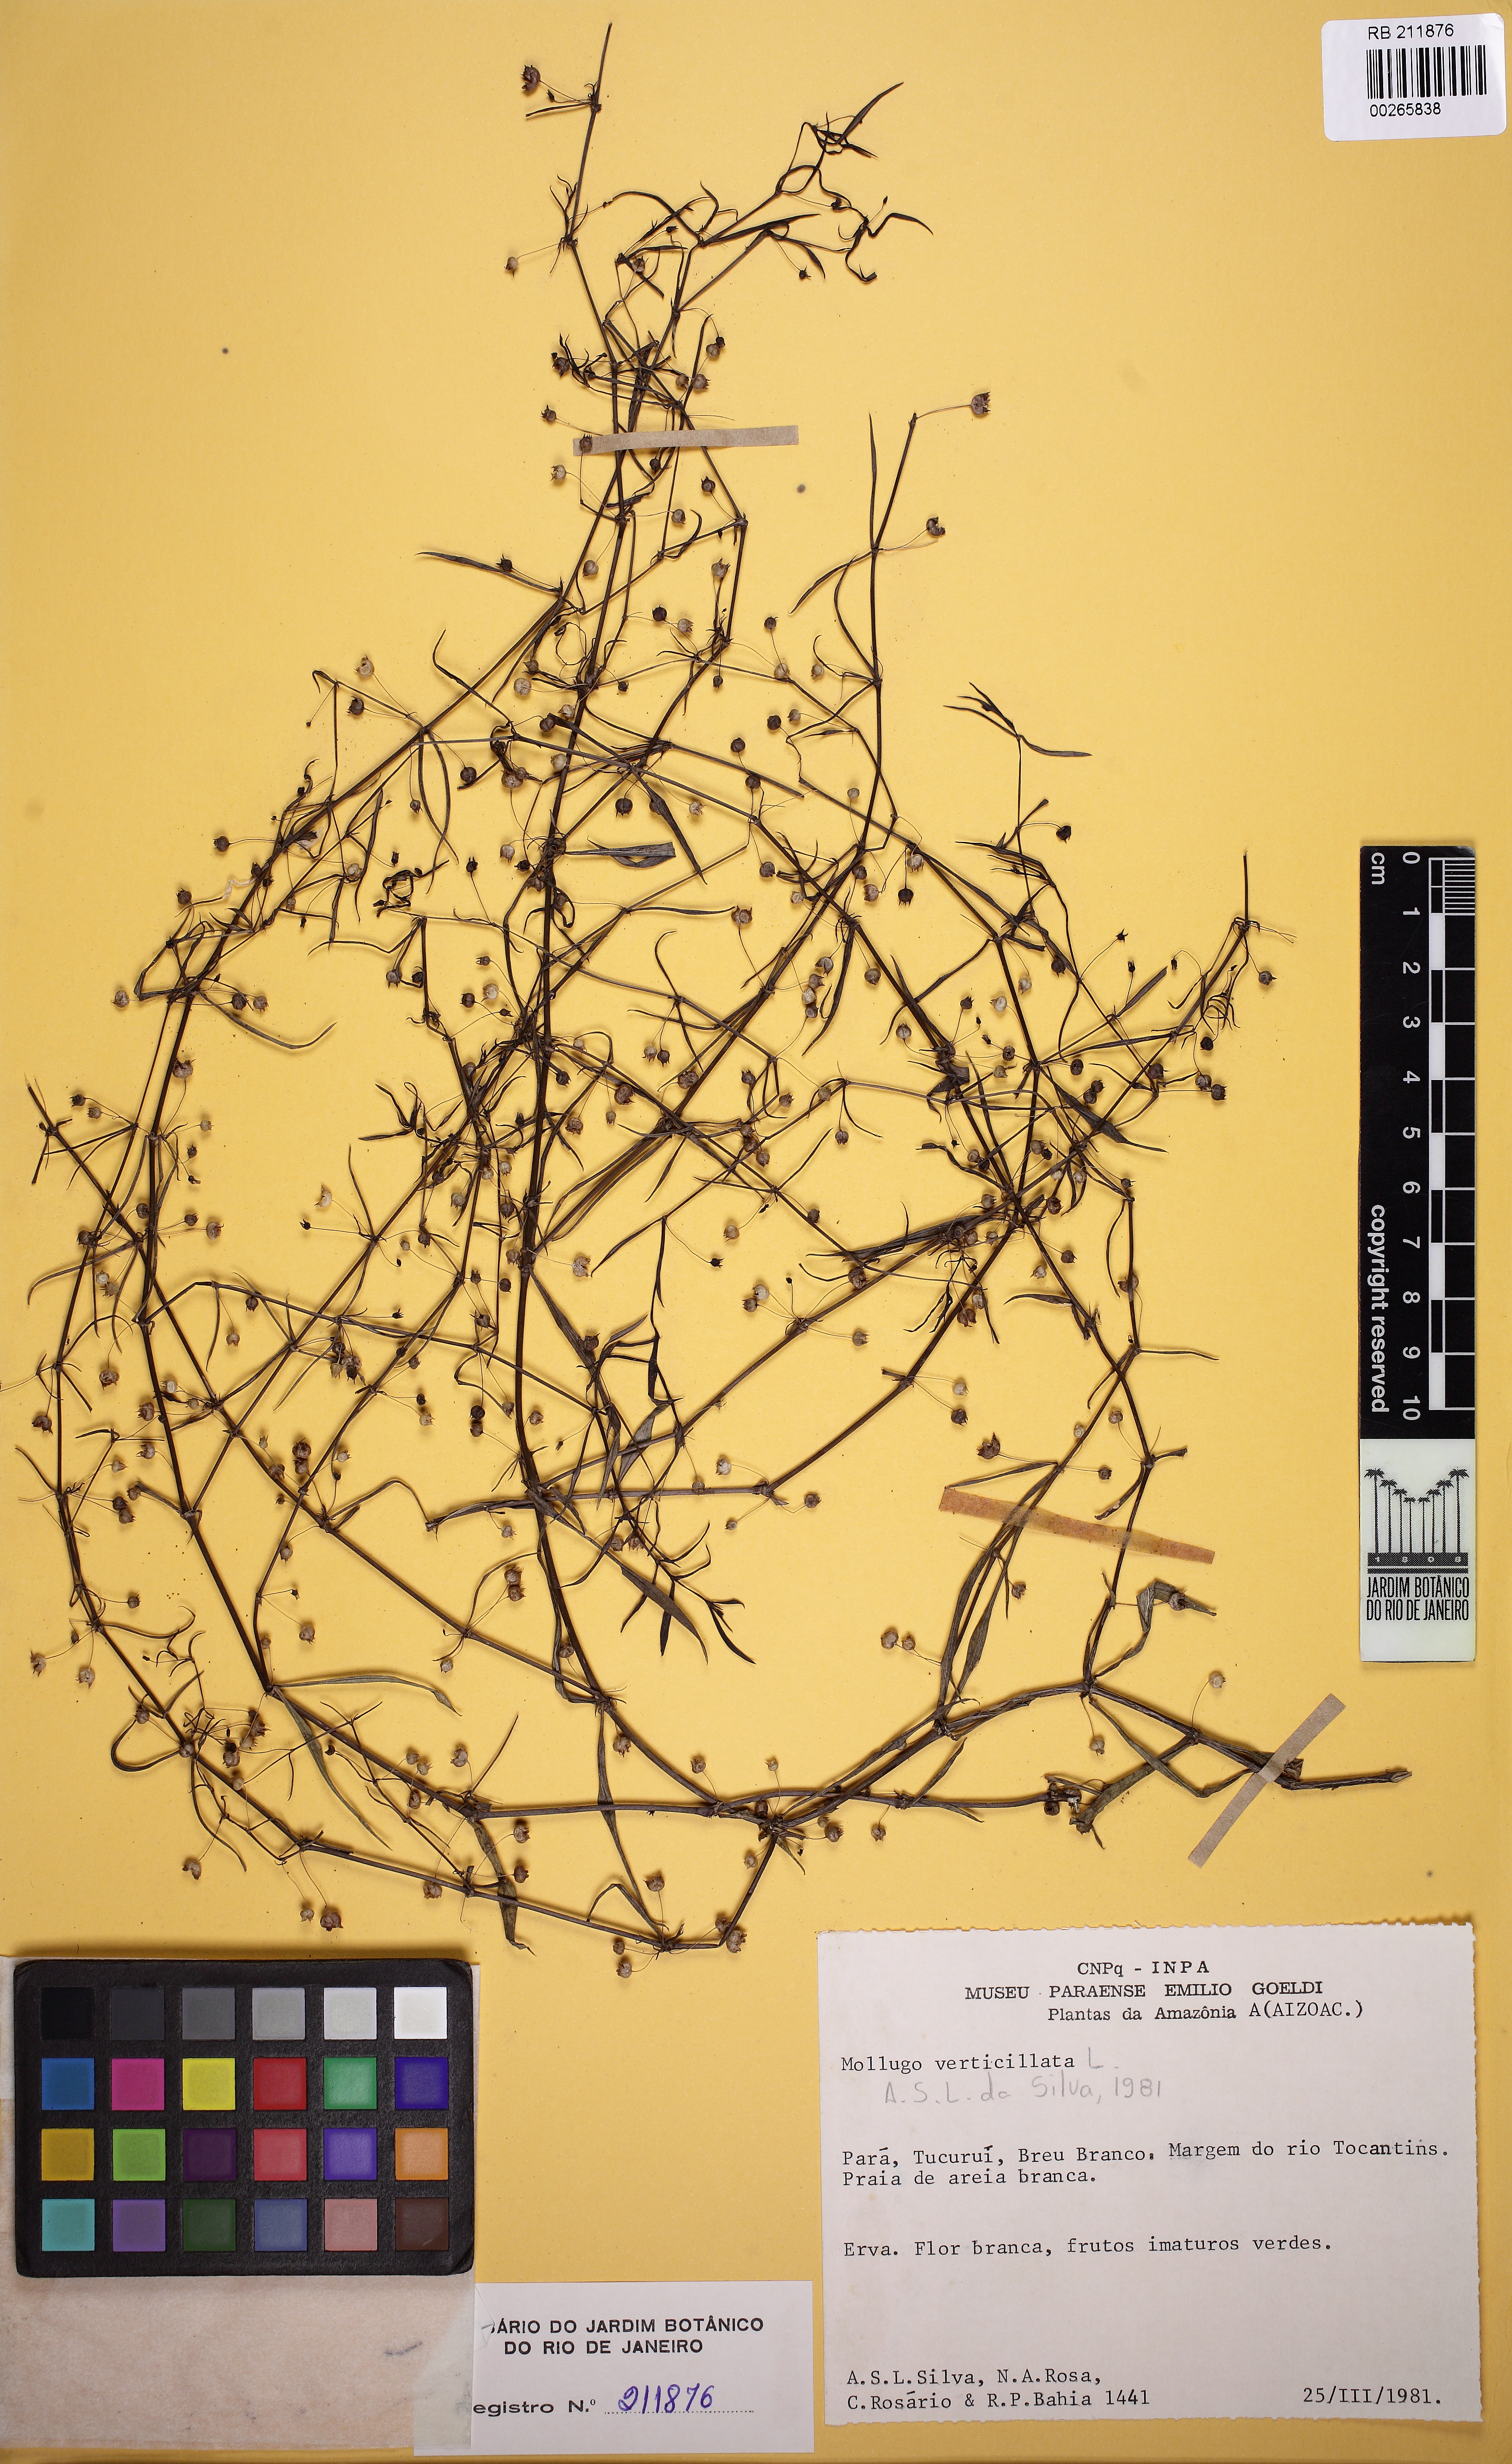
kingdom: Plantae
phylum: Tracheophyta
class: Magnoliopsida
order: Caryophyllales
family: Molluginaceae
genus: Mollugo
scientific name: Mollugo verticillata
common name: Green carpetweed
